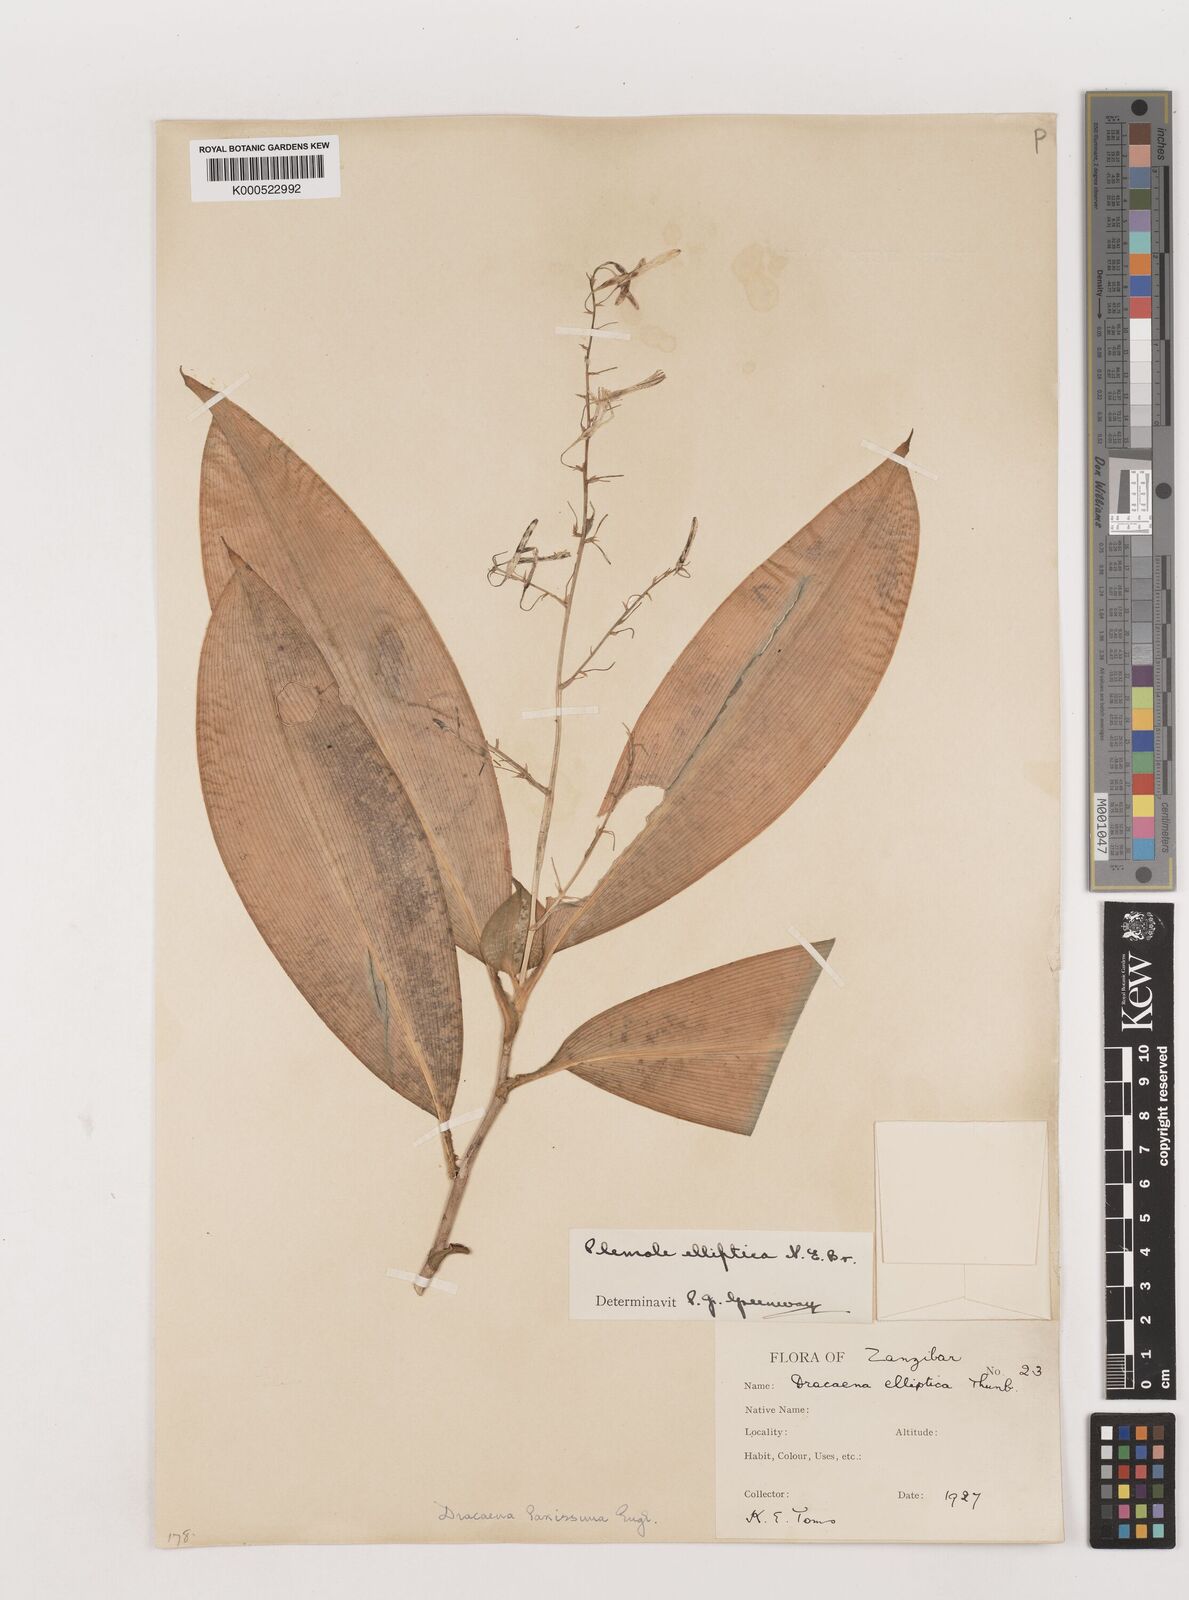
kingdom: Plantae
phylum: Tracheophyta
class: Liliopsida
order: Asparagales
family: Asparagaceae
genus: Dracaena
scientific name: Dracaena laxissima
